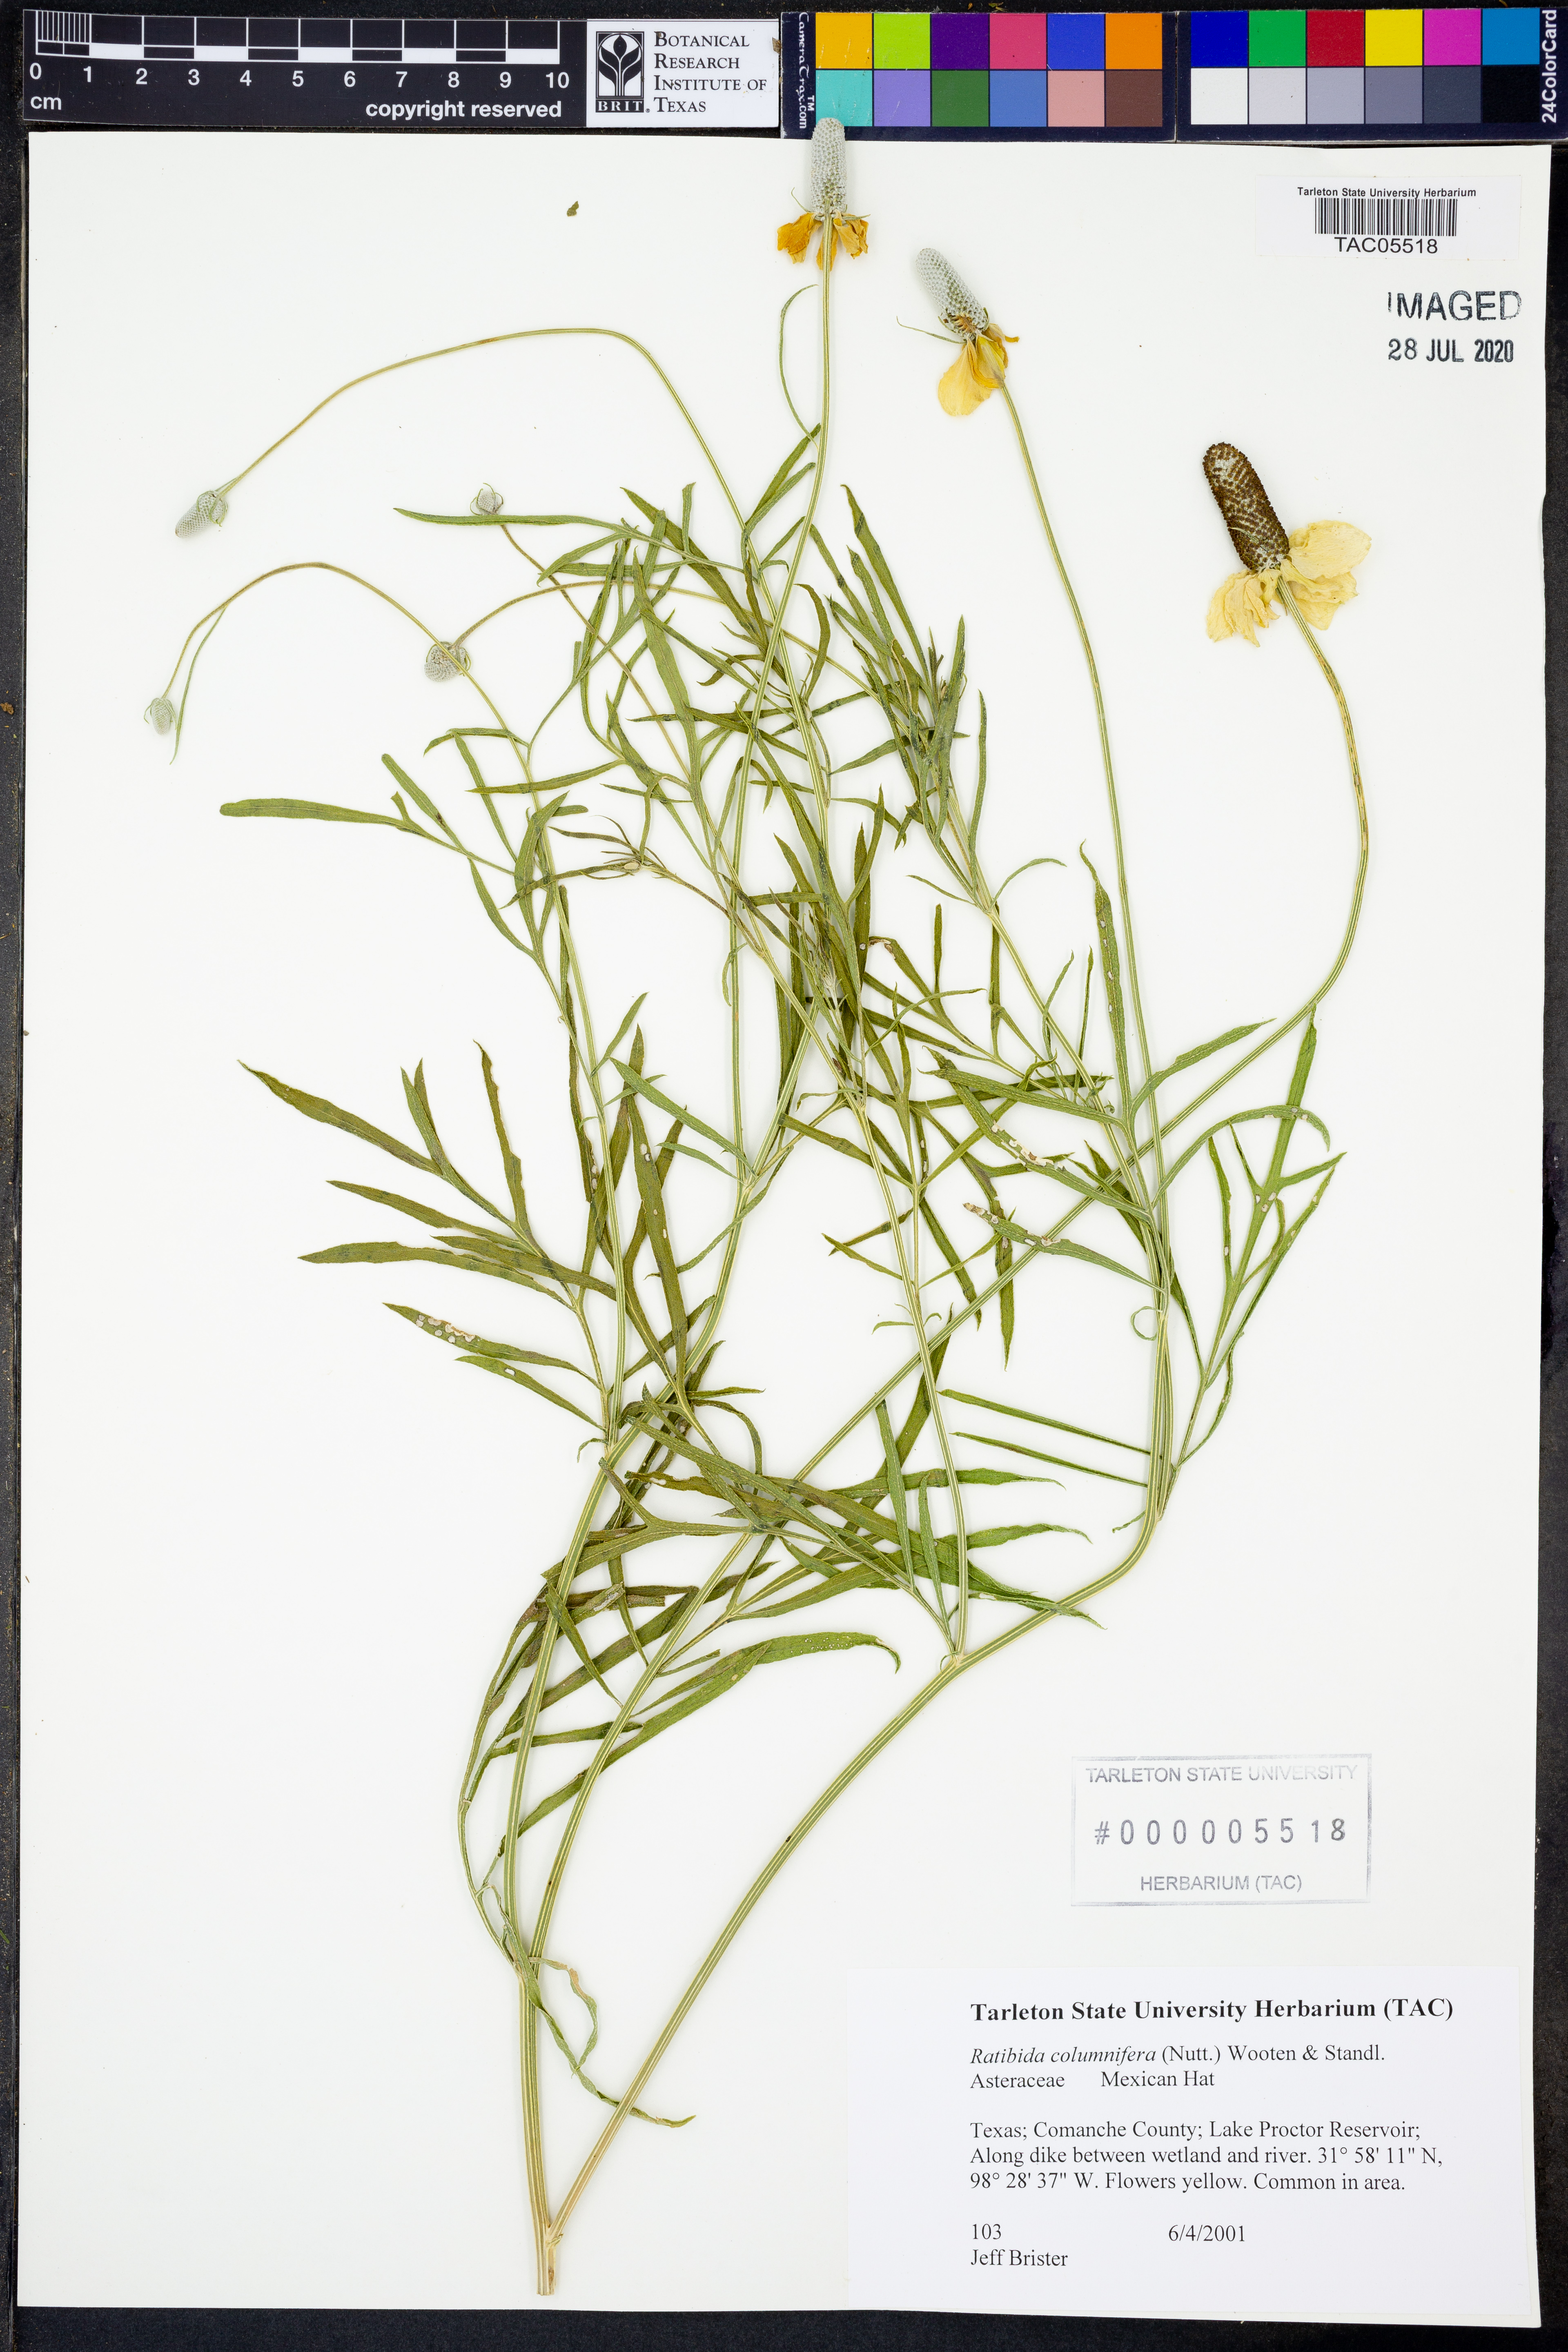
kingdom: Plantae
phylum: Tracheophyta
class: Magnoliopsida
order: Asterales
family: Asteraceae
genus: Ratibida
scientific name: Ratibida columnifera
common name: Prairie coneflower
